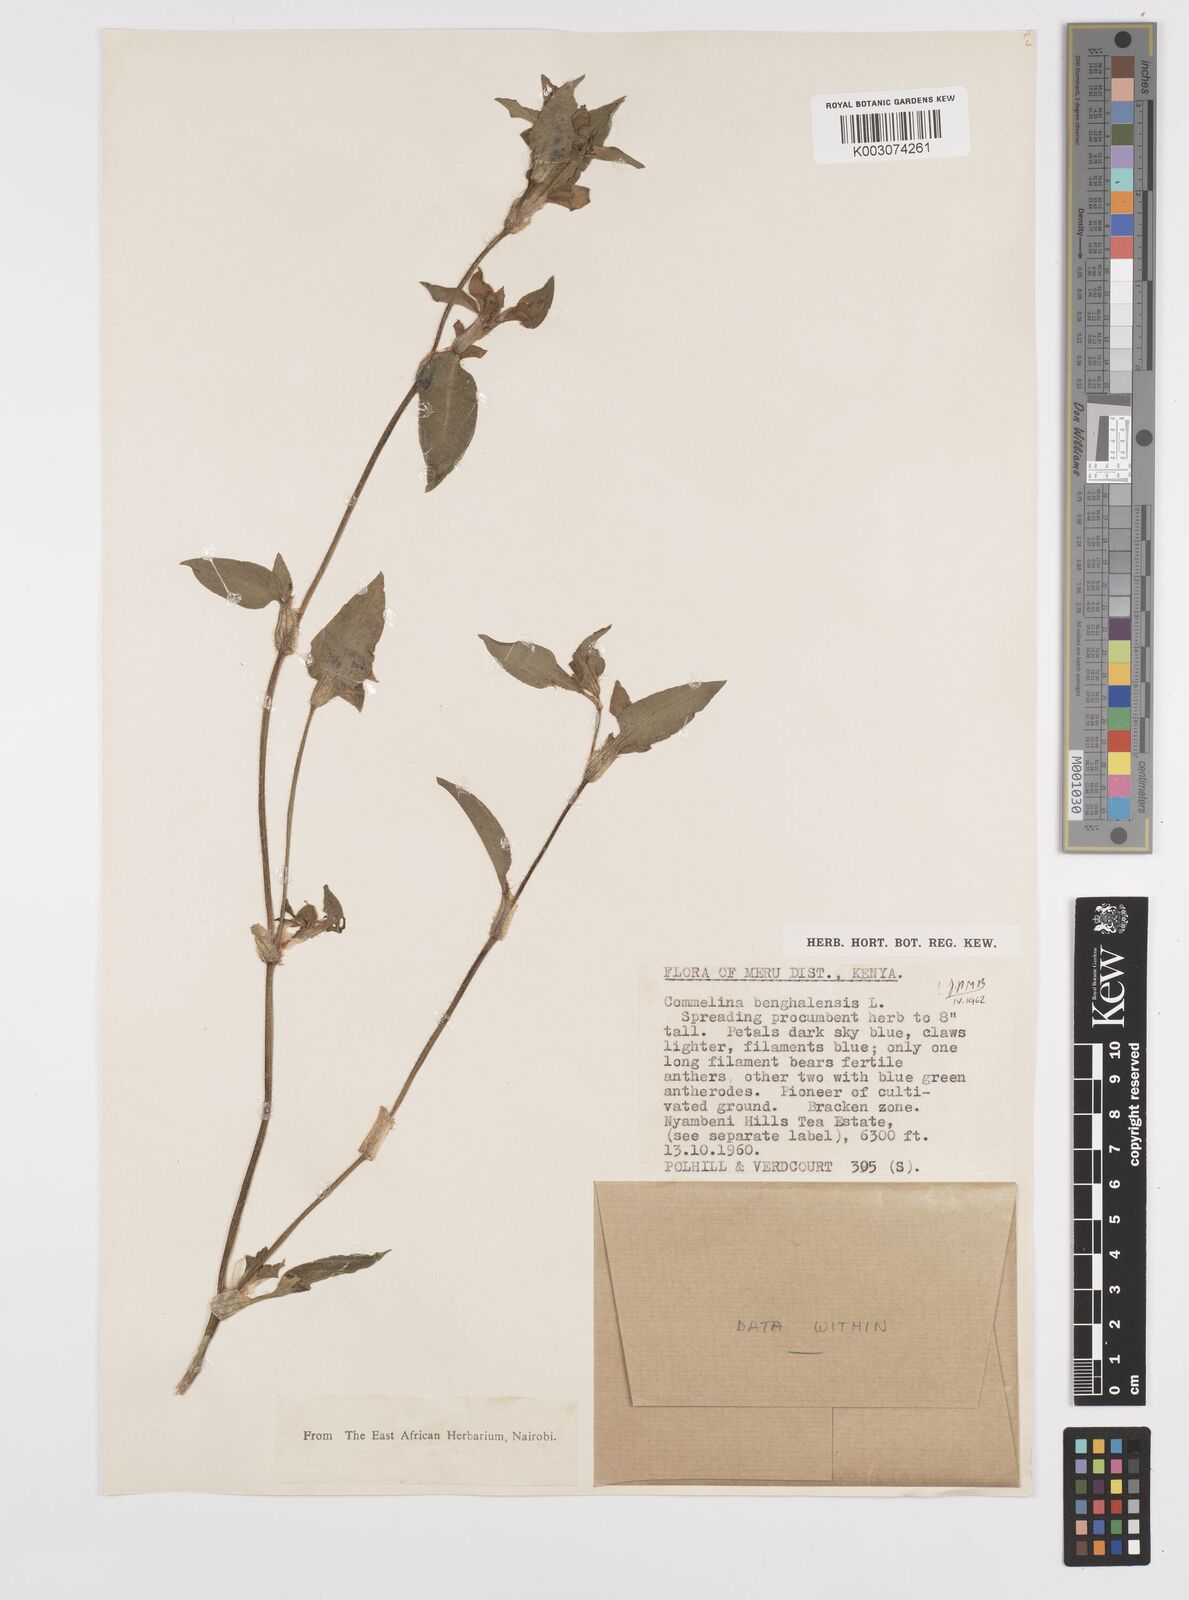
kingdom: Plantae
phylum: Tracheophyta
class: Liliopsida
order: Commelinales
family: Commelinaceae
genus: Commelina
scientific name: Commelina benghalensis
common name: Jio
